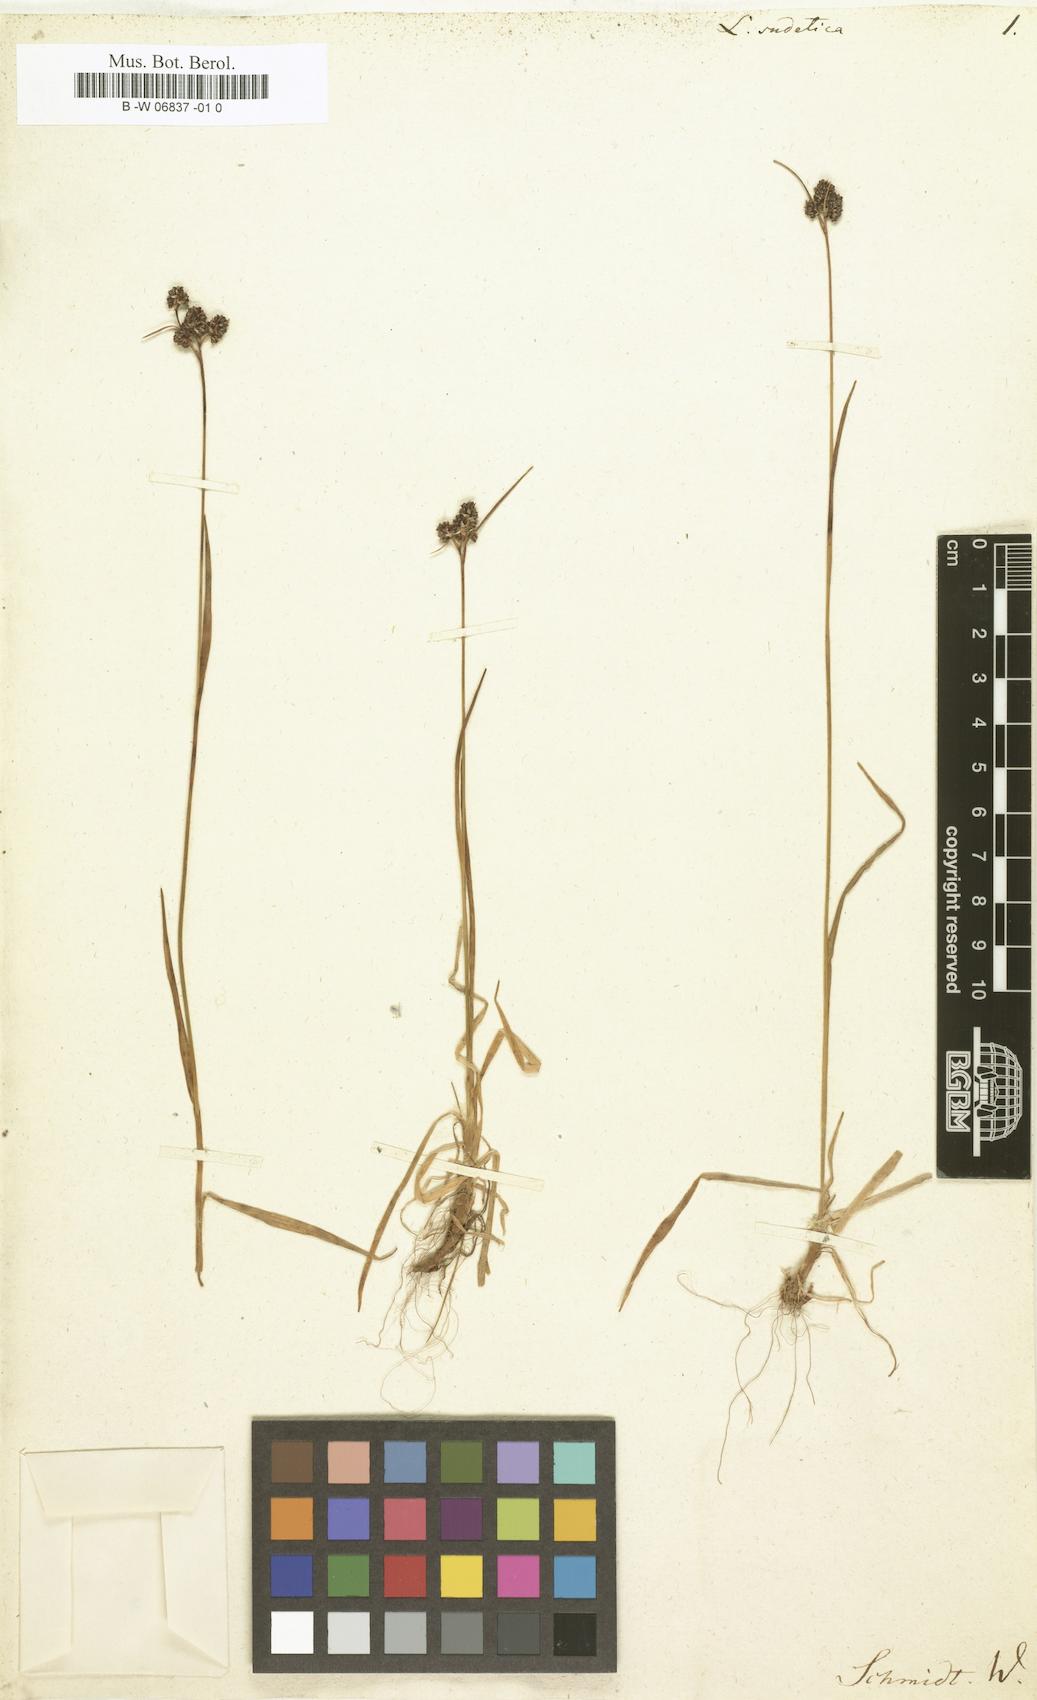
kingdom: Plantae
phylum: Tracheophyta
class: Liliopsida
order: Poales
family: Juncaceae
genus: Luzula
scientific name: Luzula sudetica
